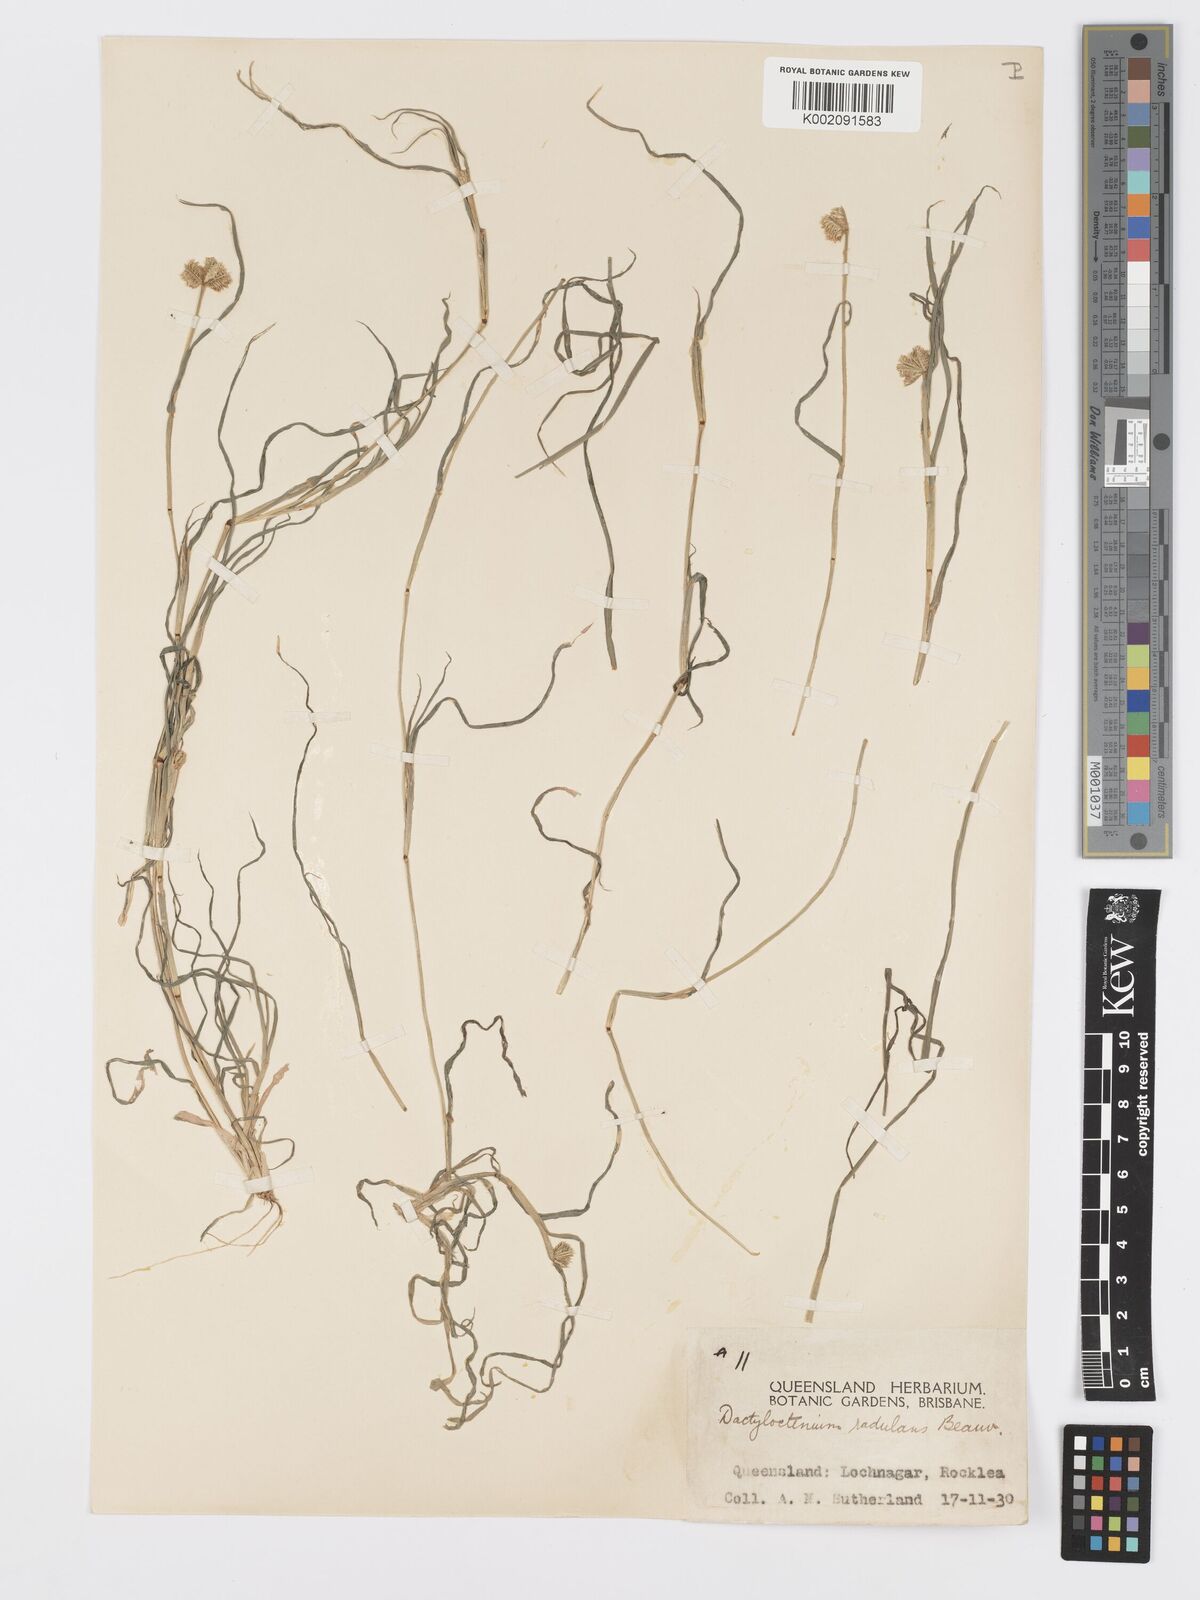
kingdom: Plantae
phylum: Tracheophyta
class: Liliopsida
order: Poales
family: Poaceae
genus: Dactyloctenium
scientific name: Dactyloctenium radulans
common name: Button-grass
